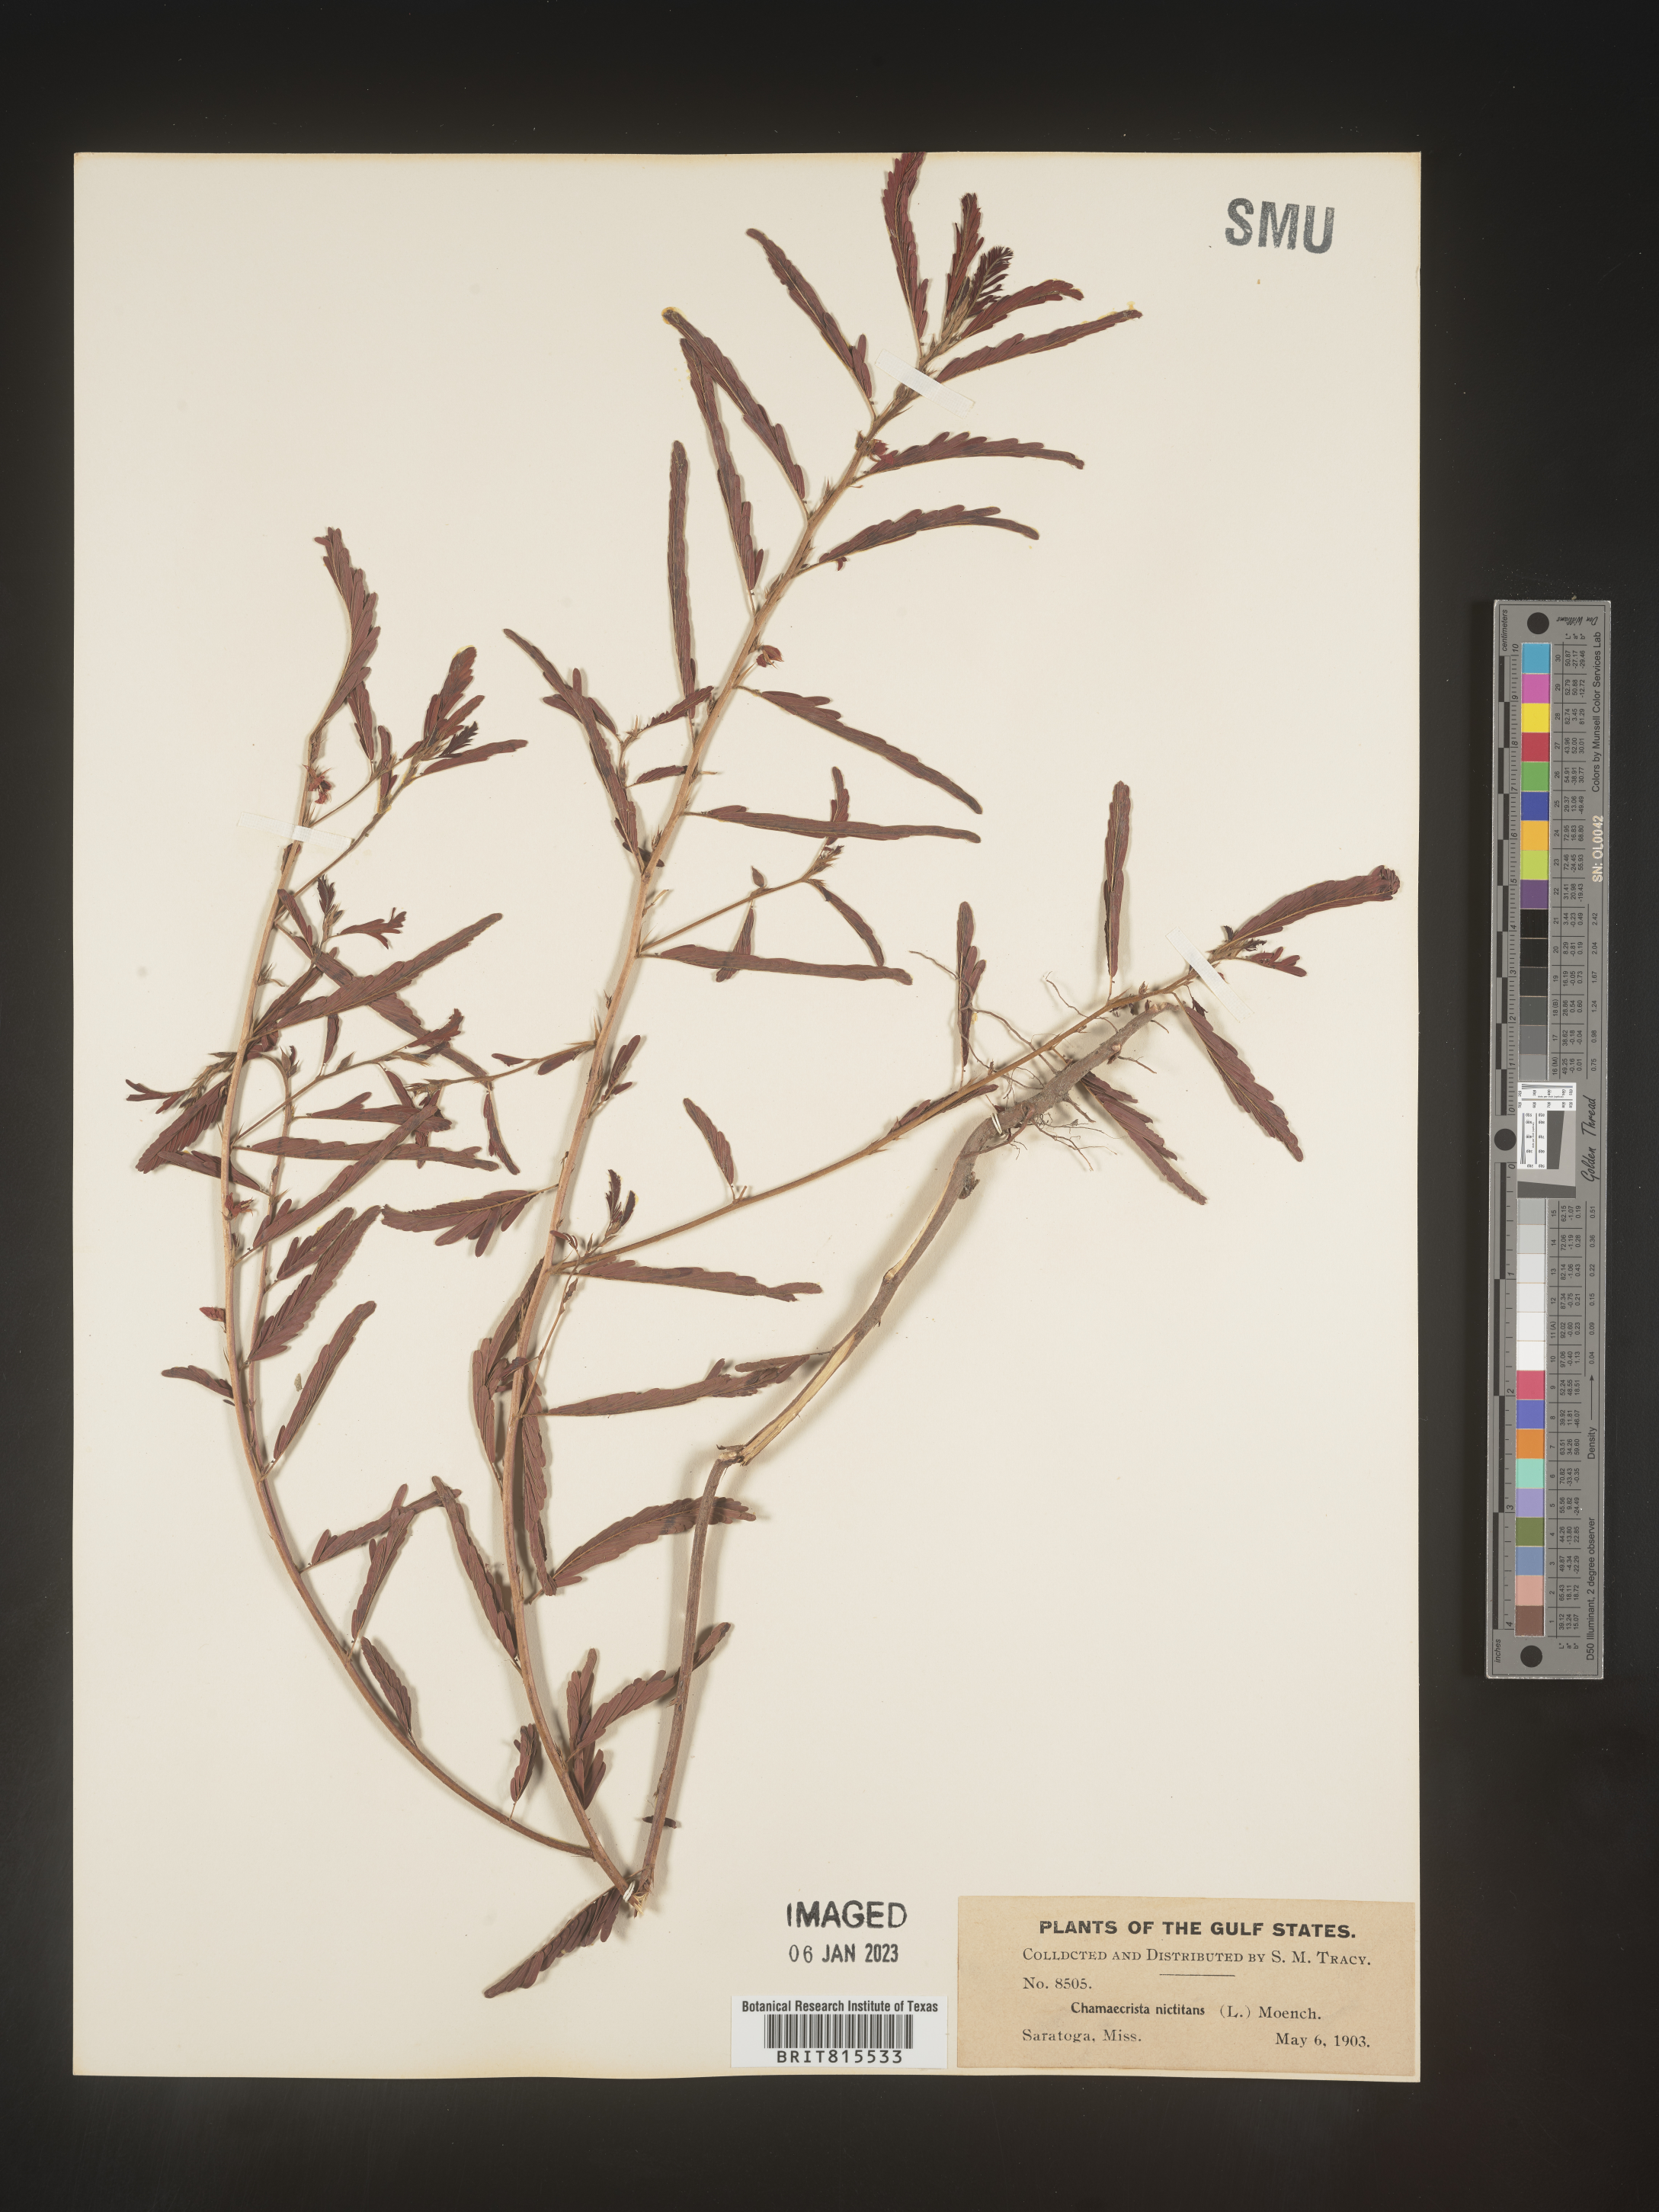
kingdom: Plantae
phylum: Tracheophyta
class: Magnoliopsida
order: Fabales
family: Fabaceae
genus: Chamaecrista
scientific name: Chamaecrista nictitans
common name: Sensitive cassia
